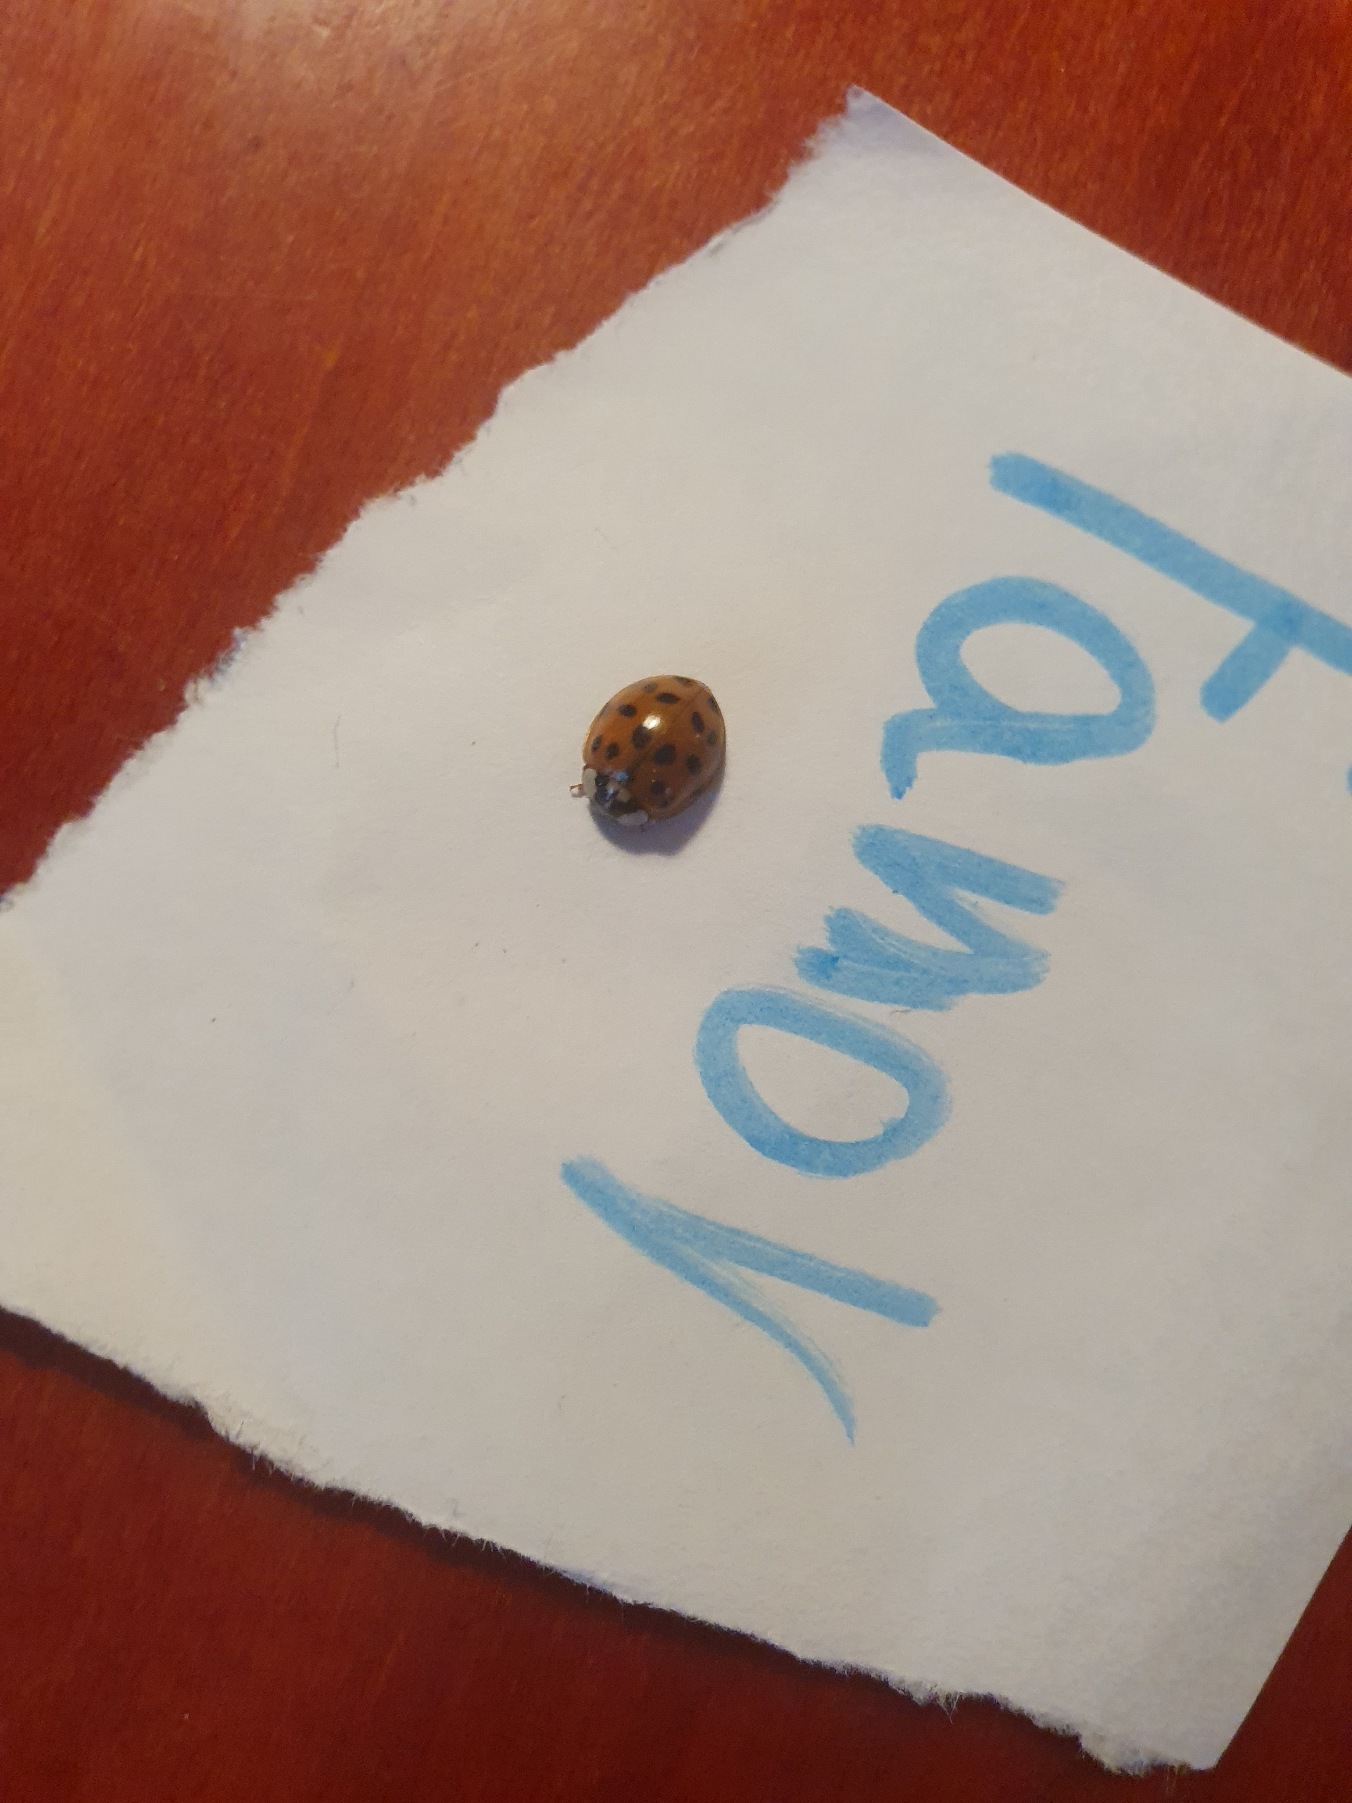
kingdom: Animalia
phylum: Arthropoda
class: Insecta
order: Coleoptera
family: Coccinellidae
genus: Harmonia
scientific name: Harmonia axyridis
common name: Harlekinmariehøne
